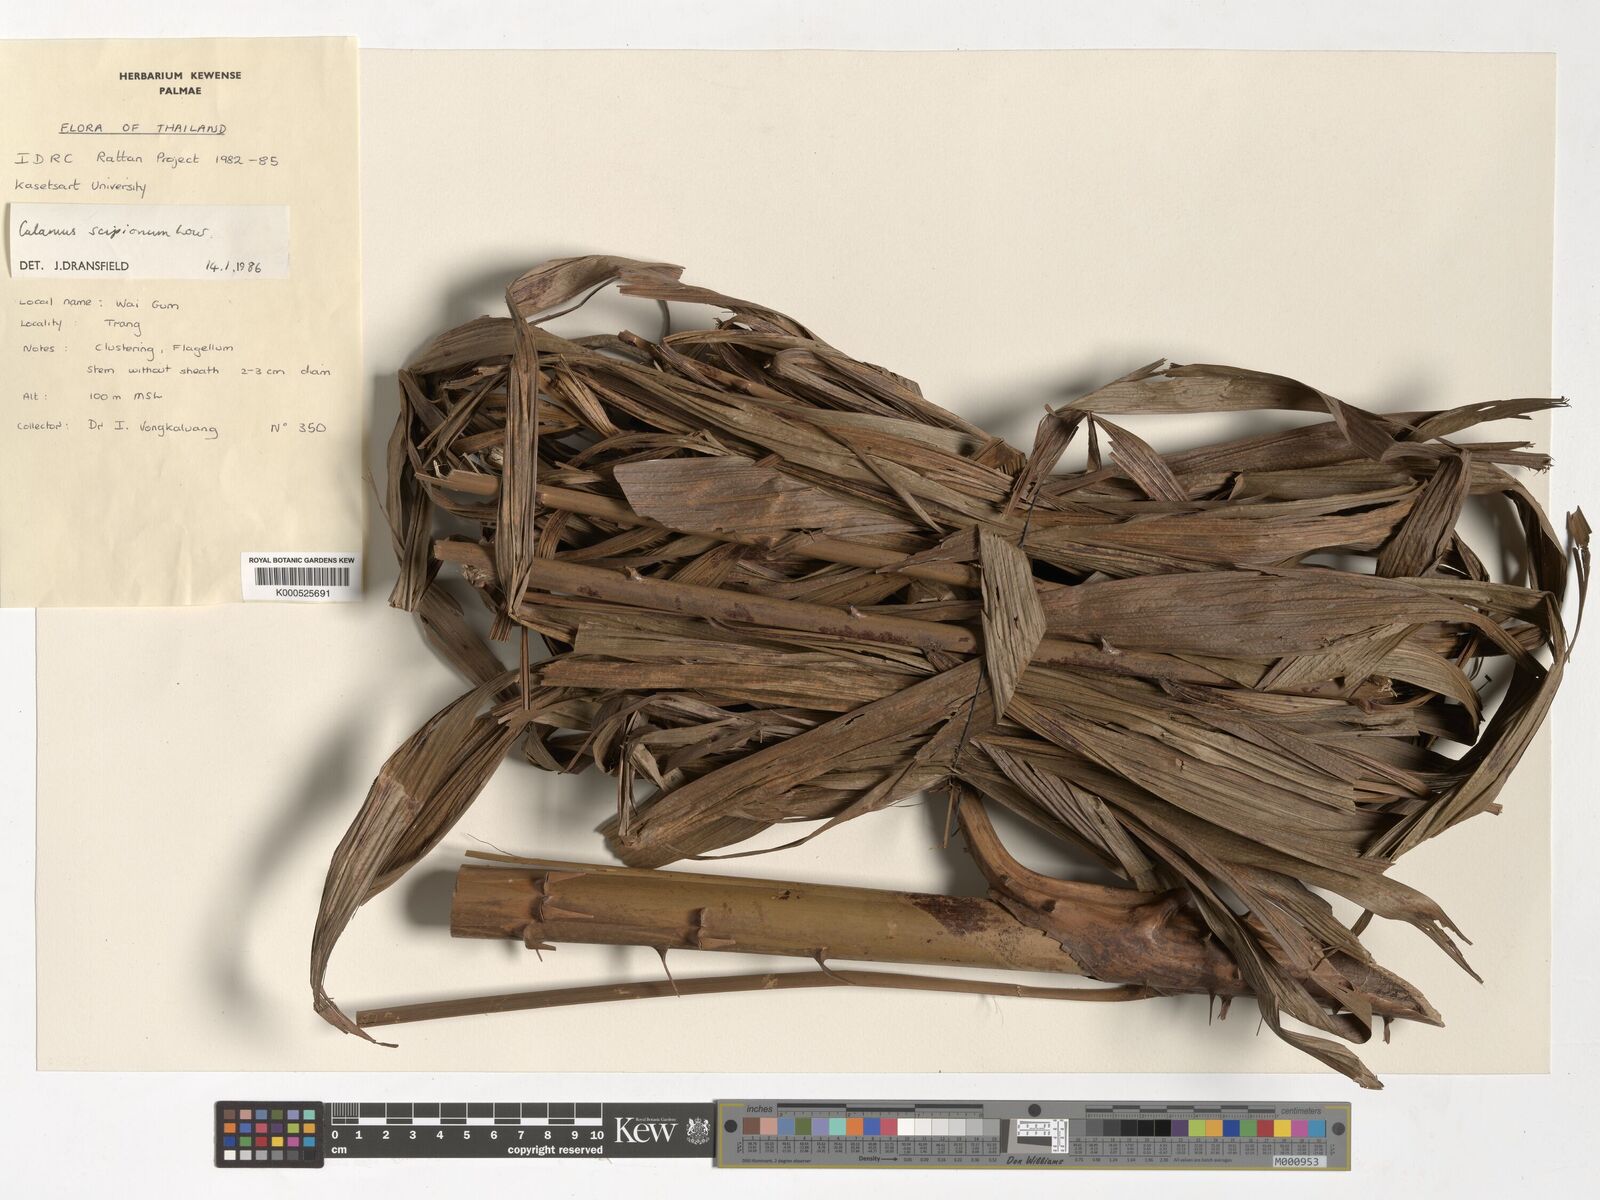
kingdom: Plantae
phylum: Tracheophyta
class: Liliopsida
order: Arecales
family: Arecaceae
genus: Calamus
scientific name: Calamus scipionum
